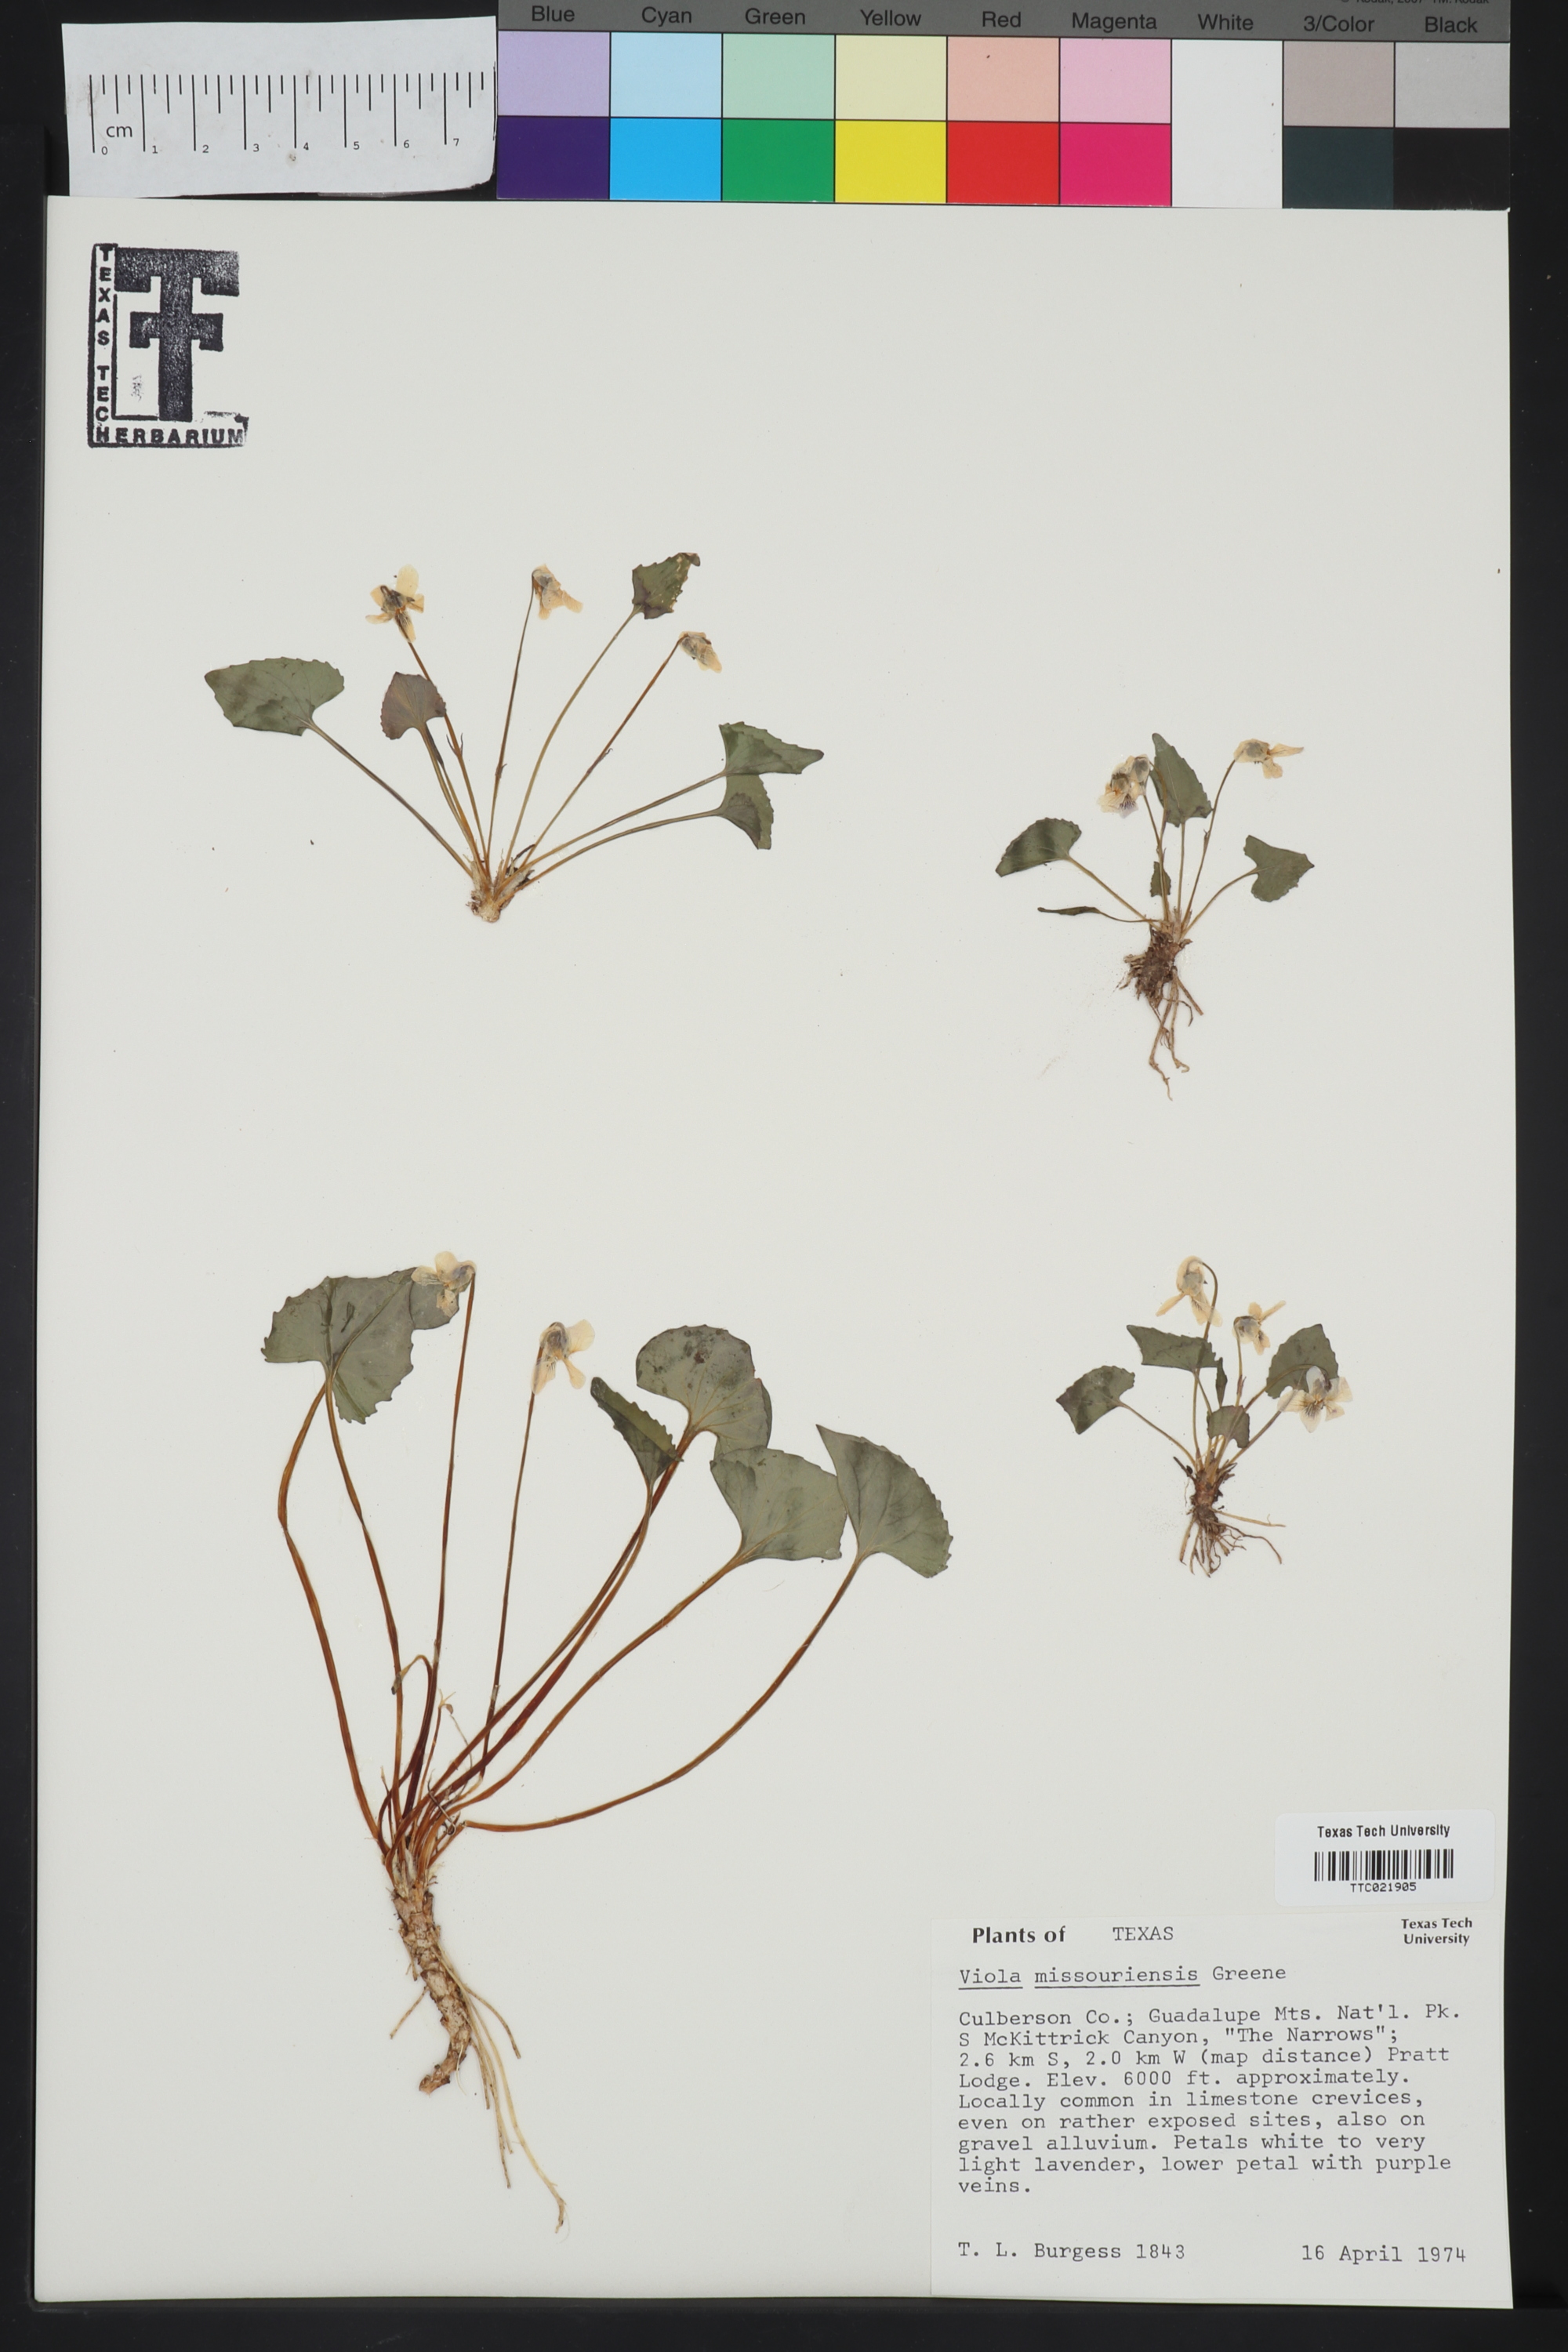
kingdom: Plantae
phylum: Tracheophyta
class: Magnoliopsida
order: Malpighiales
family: Violaceae
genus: Viola
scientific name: Viola missouriensis
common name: Missouri violet
